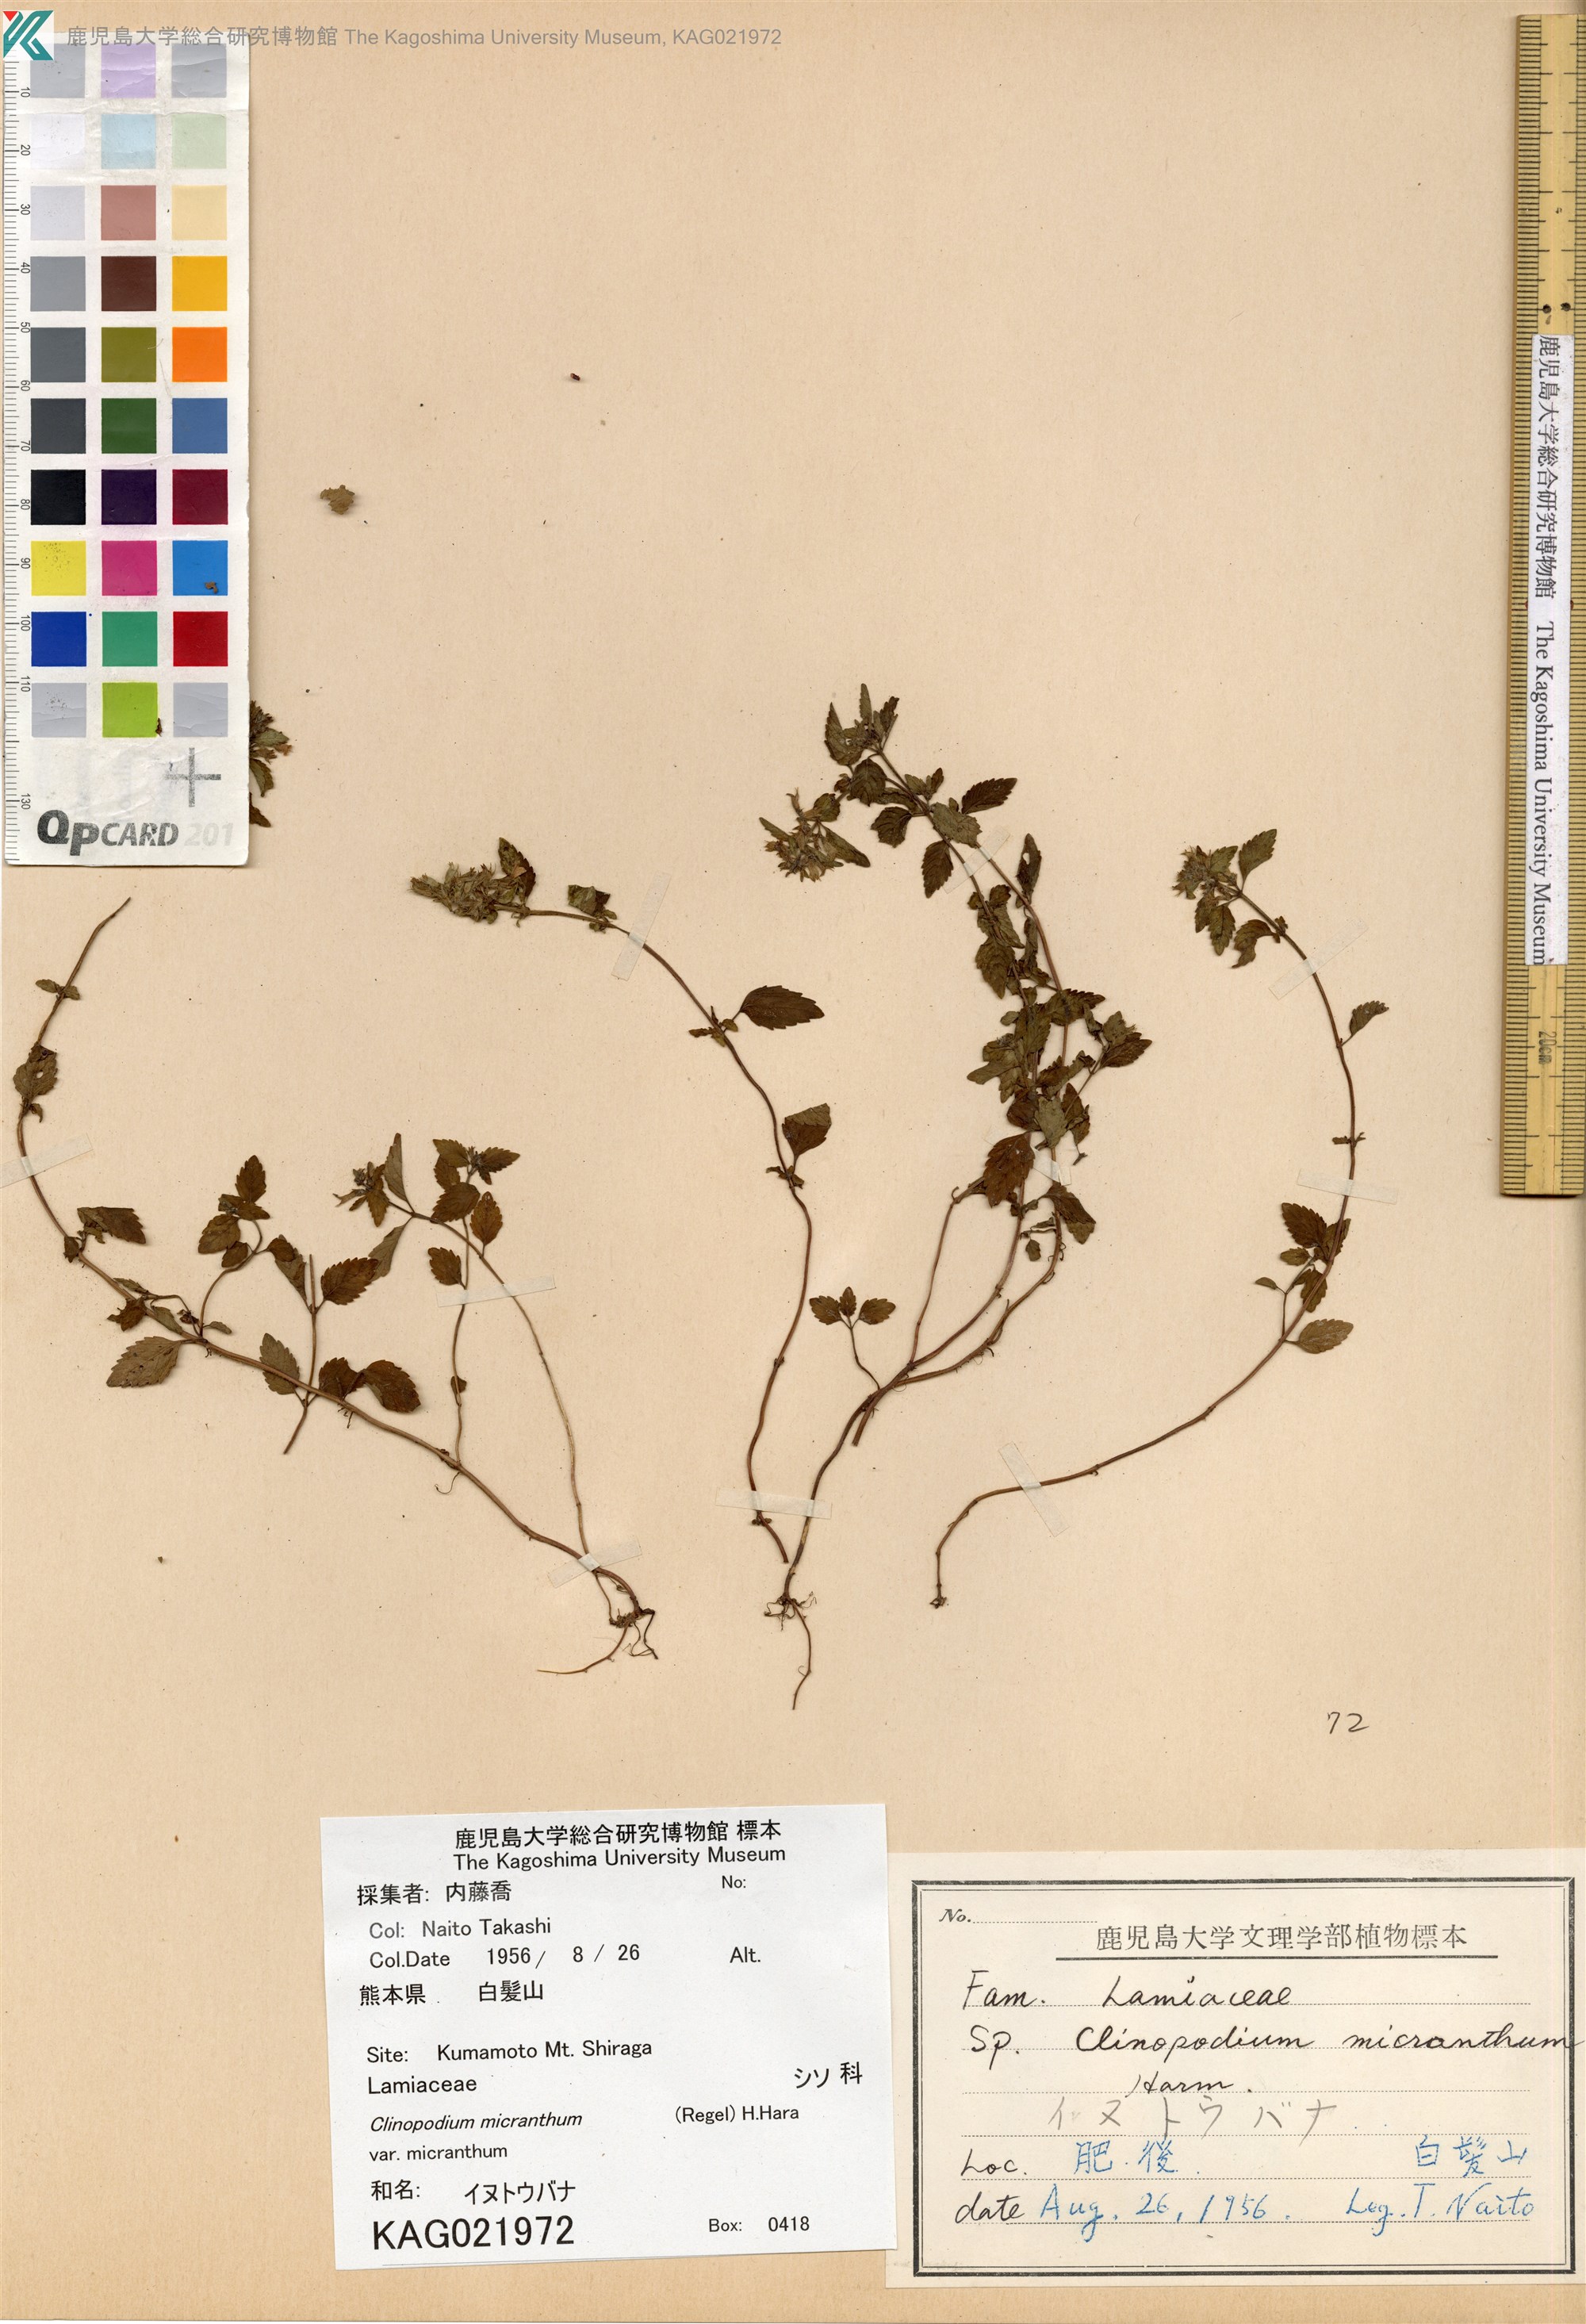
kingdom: Plantae
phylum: Tracheophyta
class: Magnoliopsida
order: Lamiales
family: Lamiaceae
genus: Clinopodium
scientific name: Clinopodium micranthum
